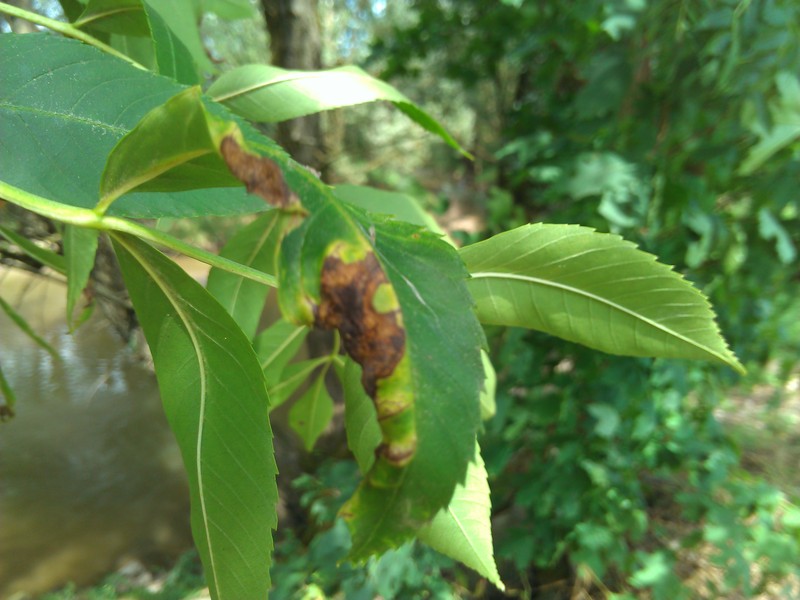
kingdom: Animalia
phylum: Arthropoda
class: Insecta
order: Hemiptera
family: Liviidae
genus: Psyllopsis
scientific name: Psyllopsis fraxini
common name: Jumping plant louse
